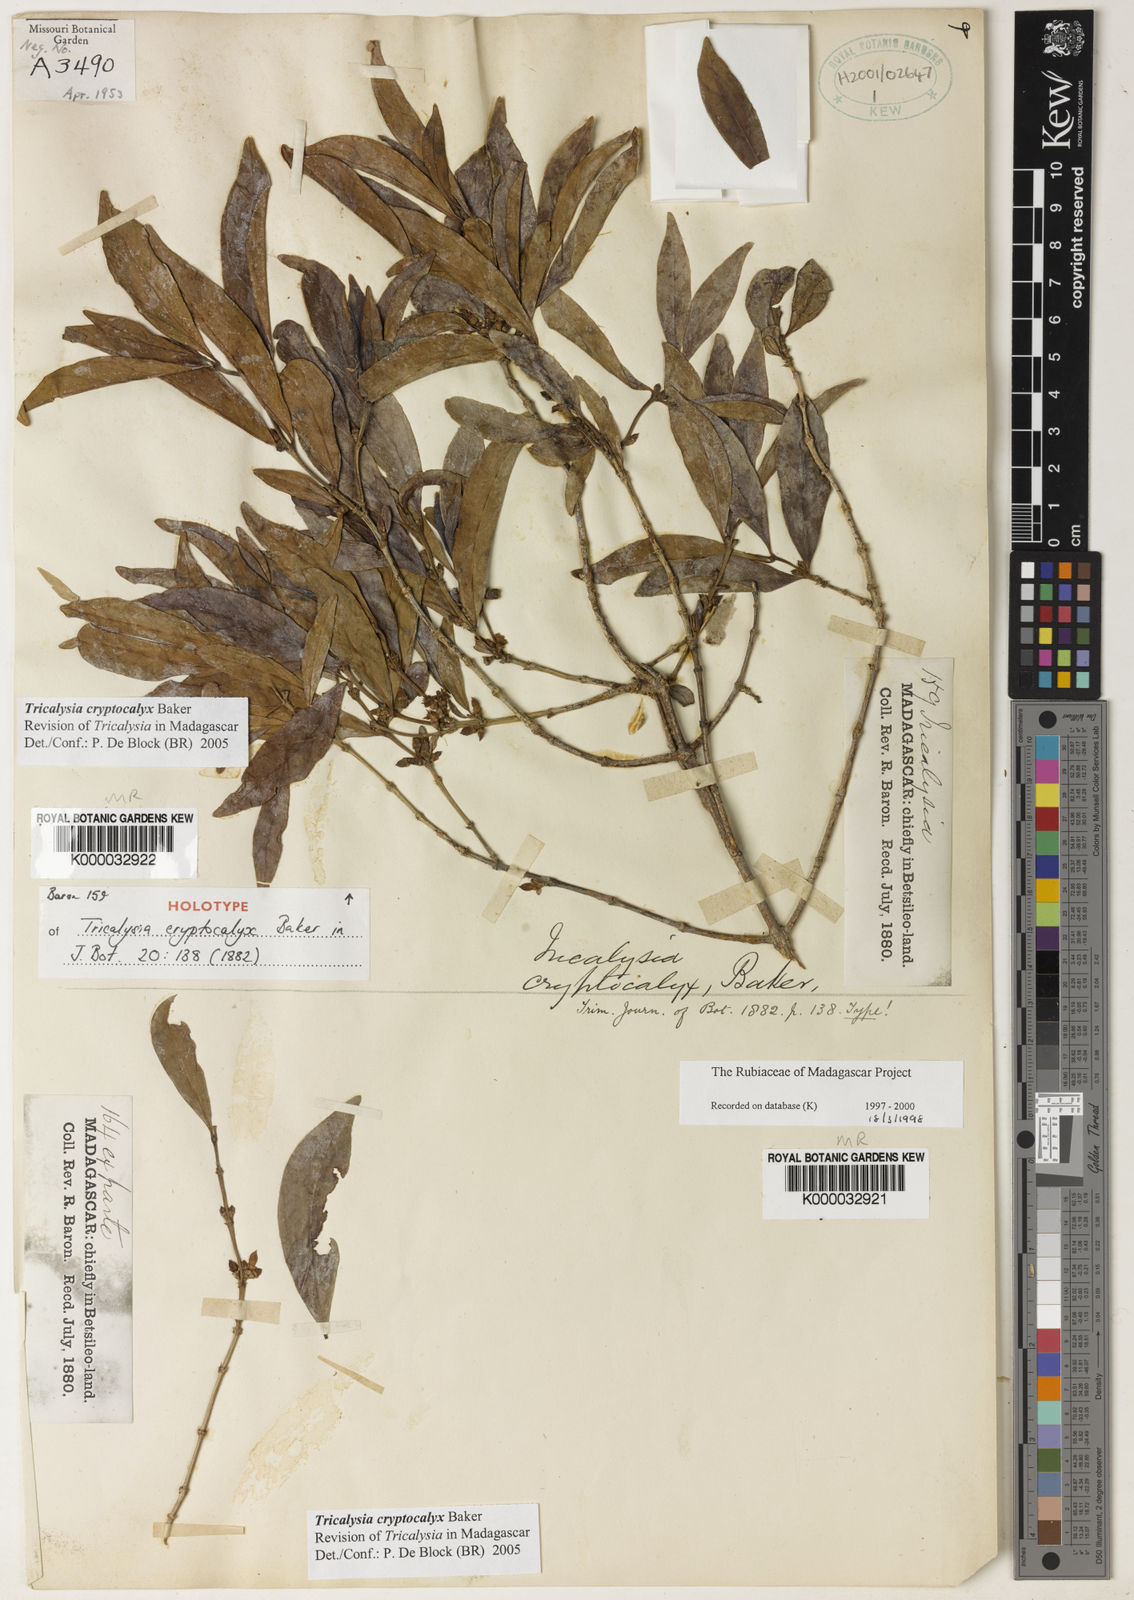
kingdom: Plantae
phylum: Tracheophyta
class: Magnoliopsida
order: Gentianales
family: Rubiaceae
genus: Tricalysia
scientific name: Tricalysia cryptocalyx
